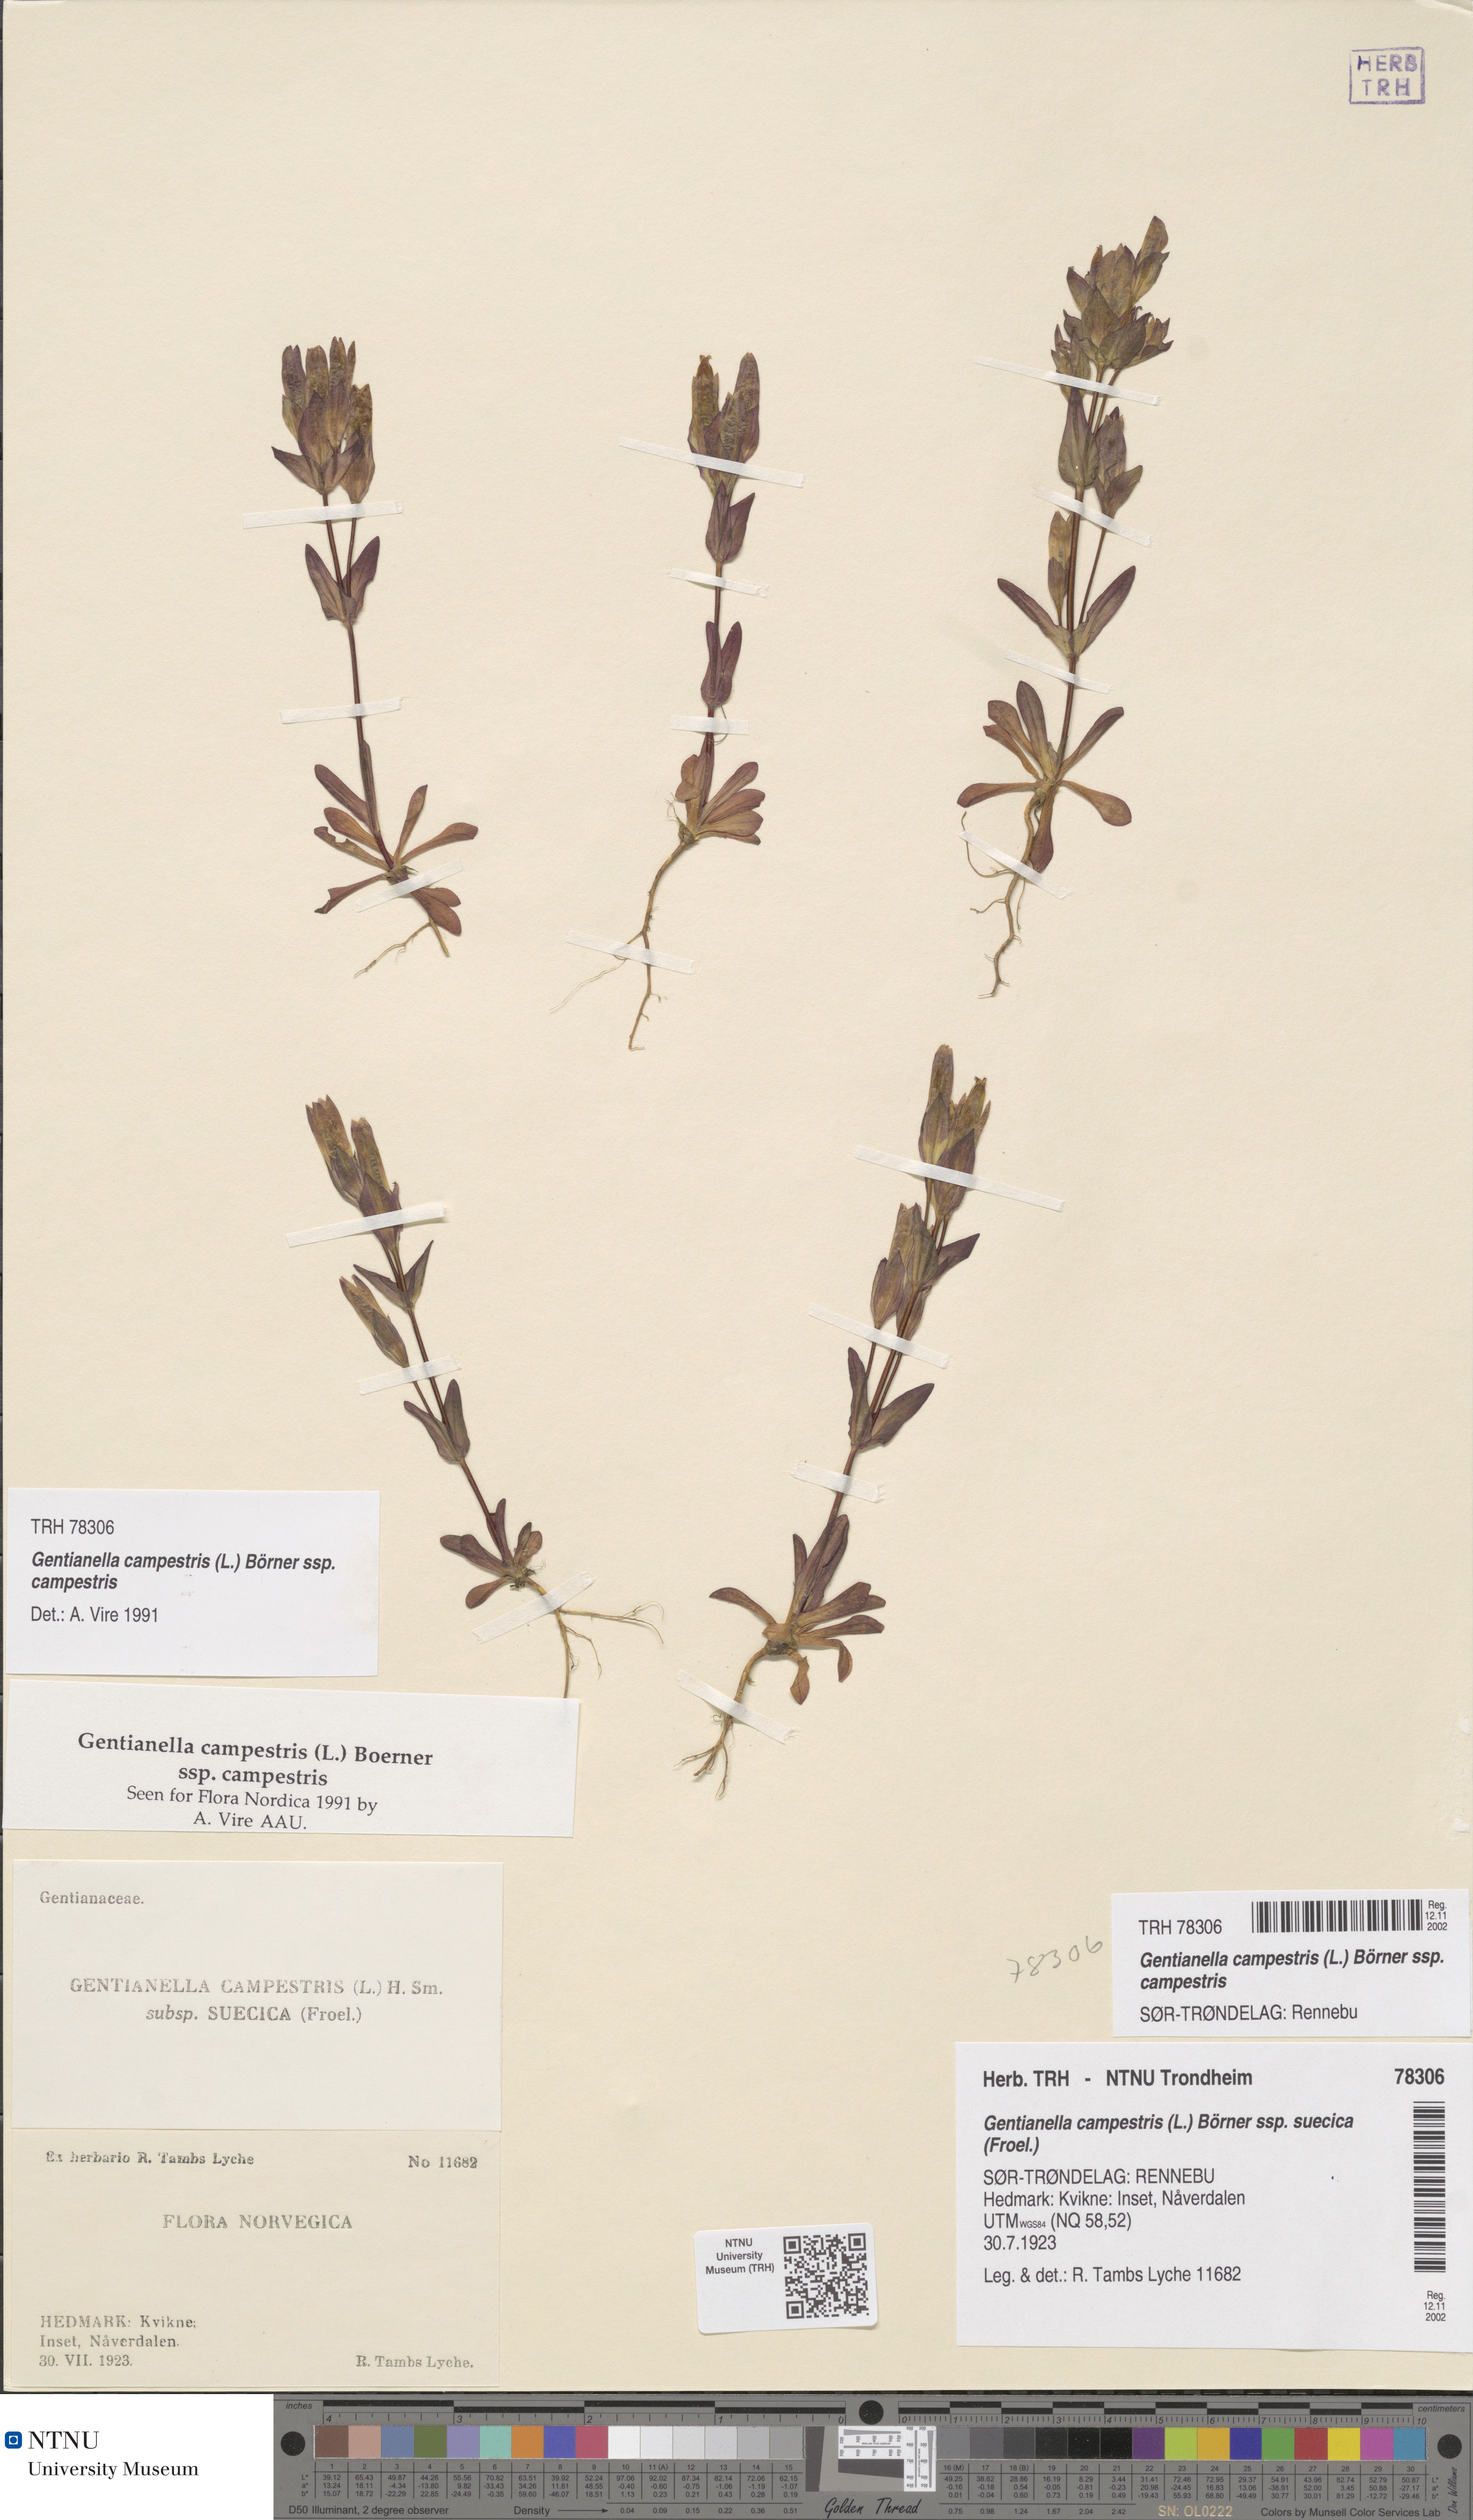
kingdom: Plantae
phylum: Tracheophyta
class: Magnoliopsida
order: Gentianales
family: Gentianaceae
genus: Gentianella
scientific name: Gentianella campestris
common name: Field gentian
